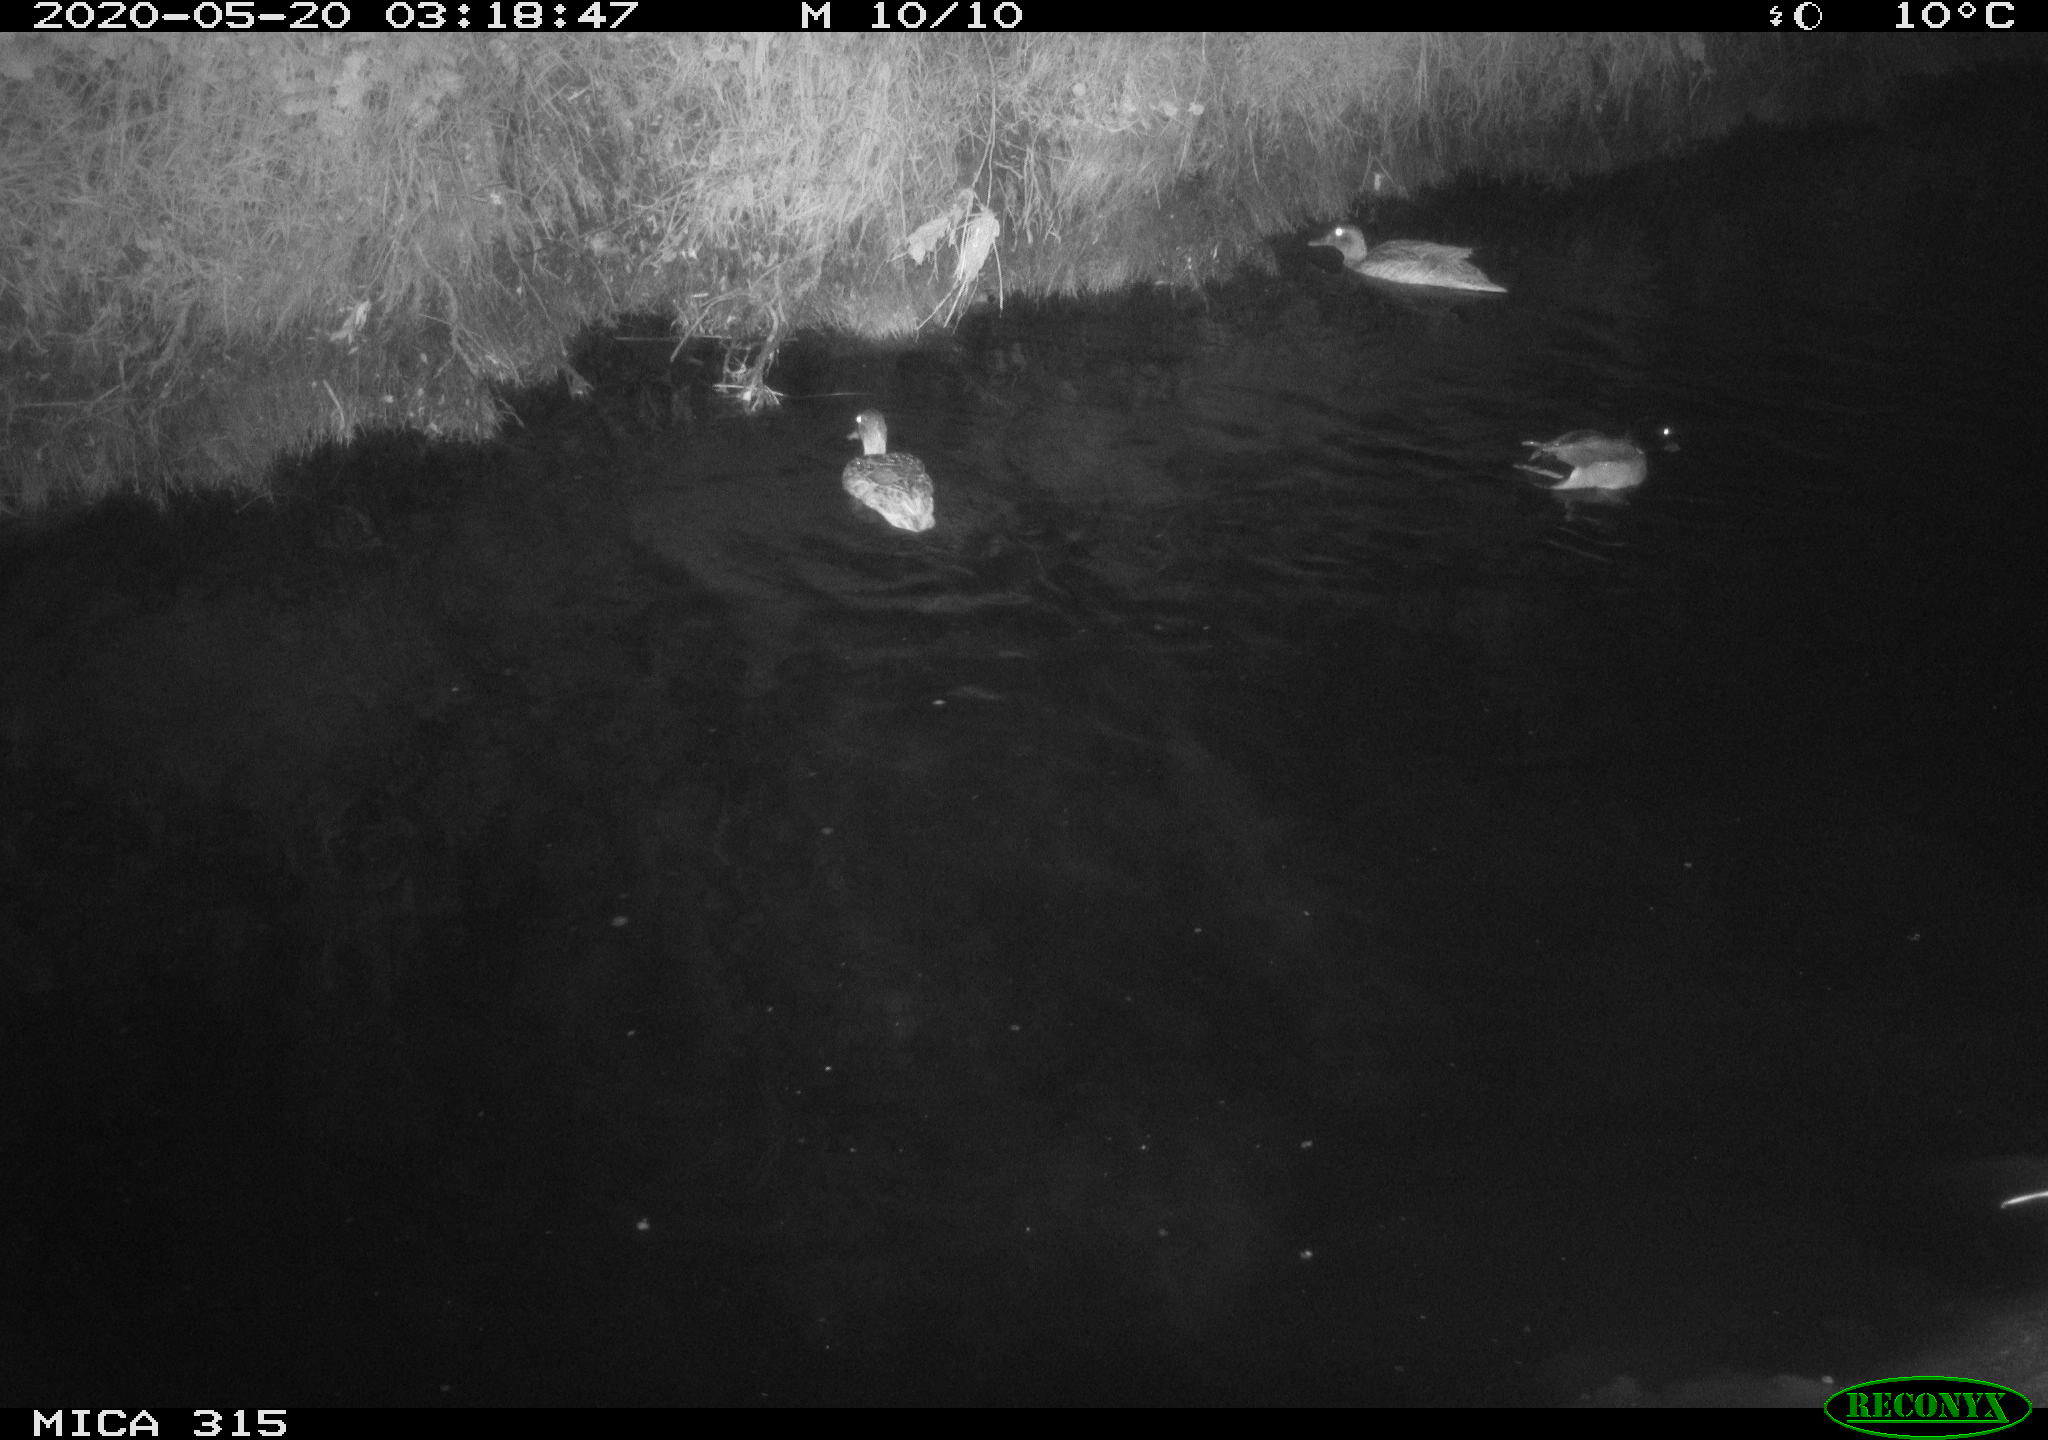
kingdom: Animalia
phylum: Chordata
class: Aves
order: Anseriformes
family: Anatidae
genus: Anas
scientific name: Anas platyrhynchos
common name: Mallard
